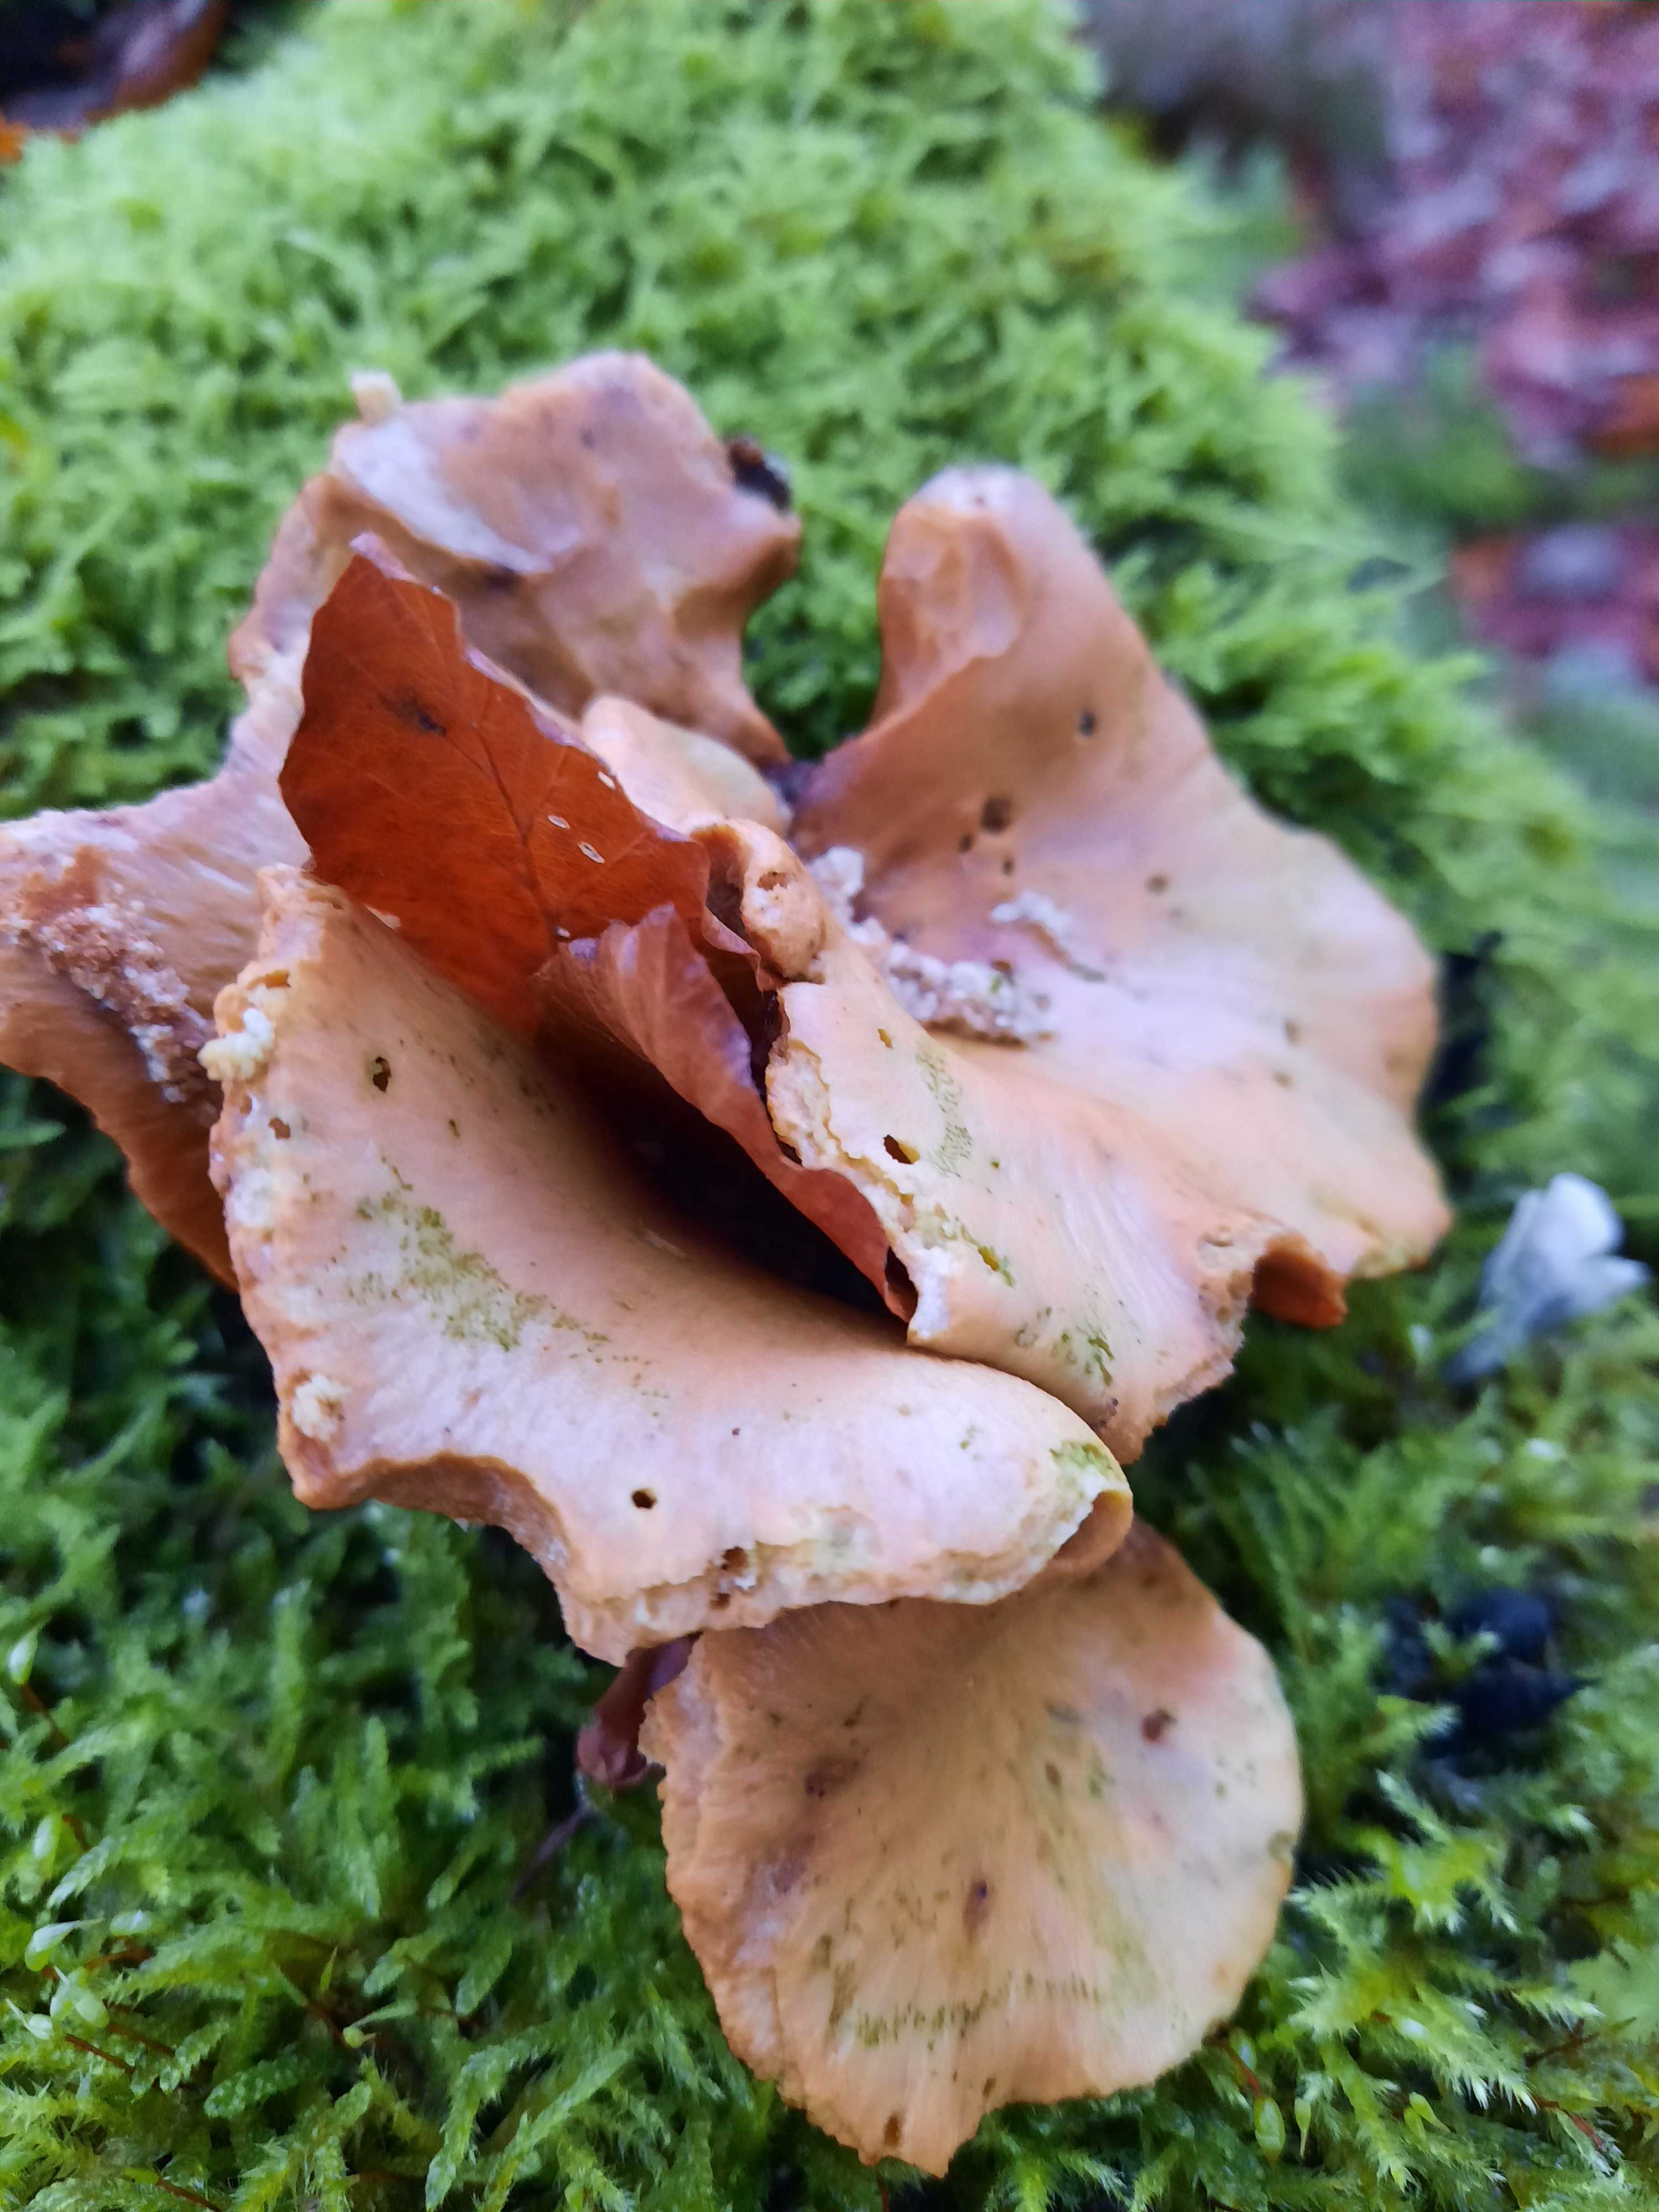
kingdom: Fungi
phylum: Basidiomycota
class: Agaricomycetes
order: Polyporales
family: Polyporaceae
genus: Cerioporus
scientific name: Cerioporus varius
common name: foranderlig stilkporesvamp
